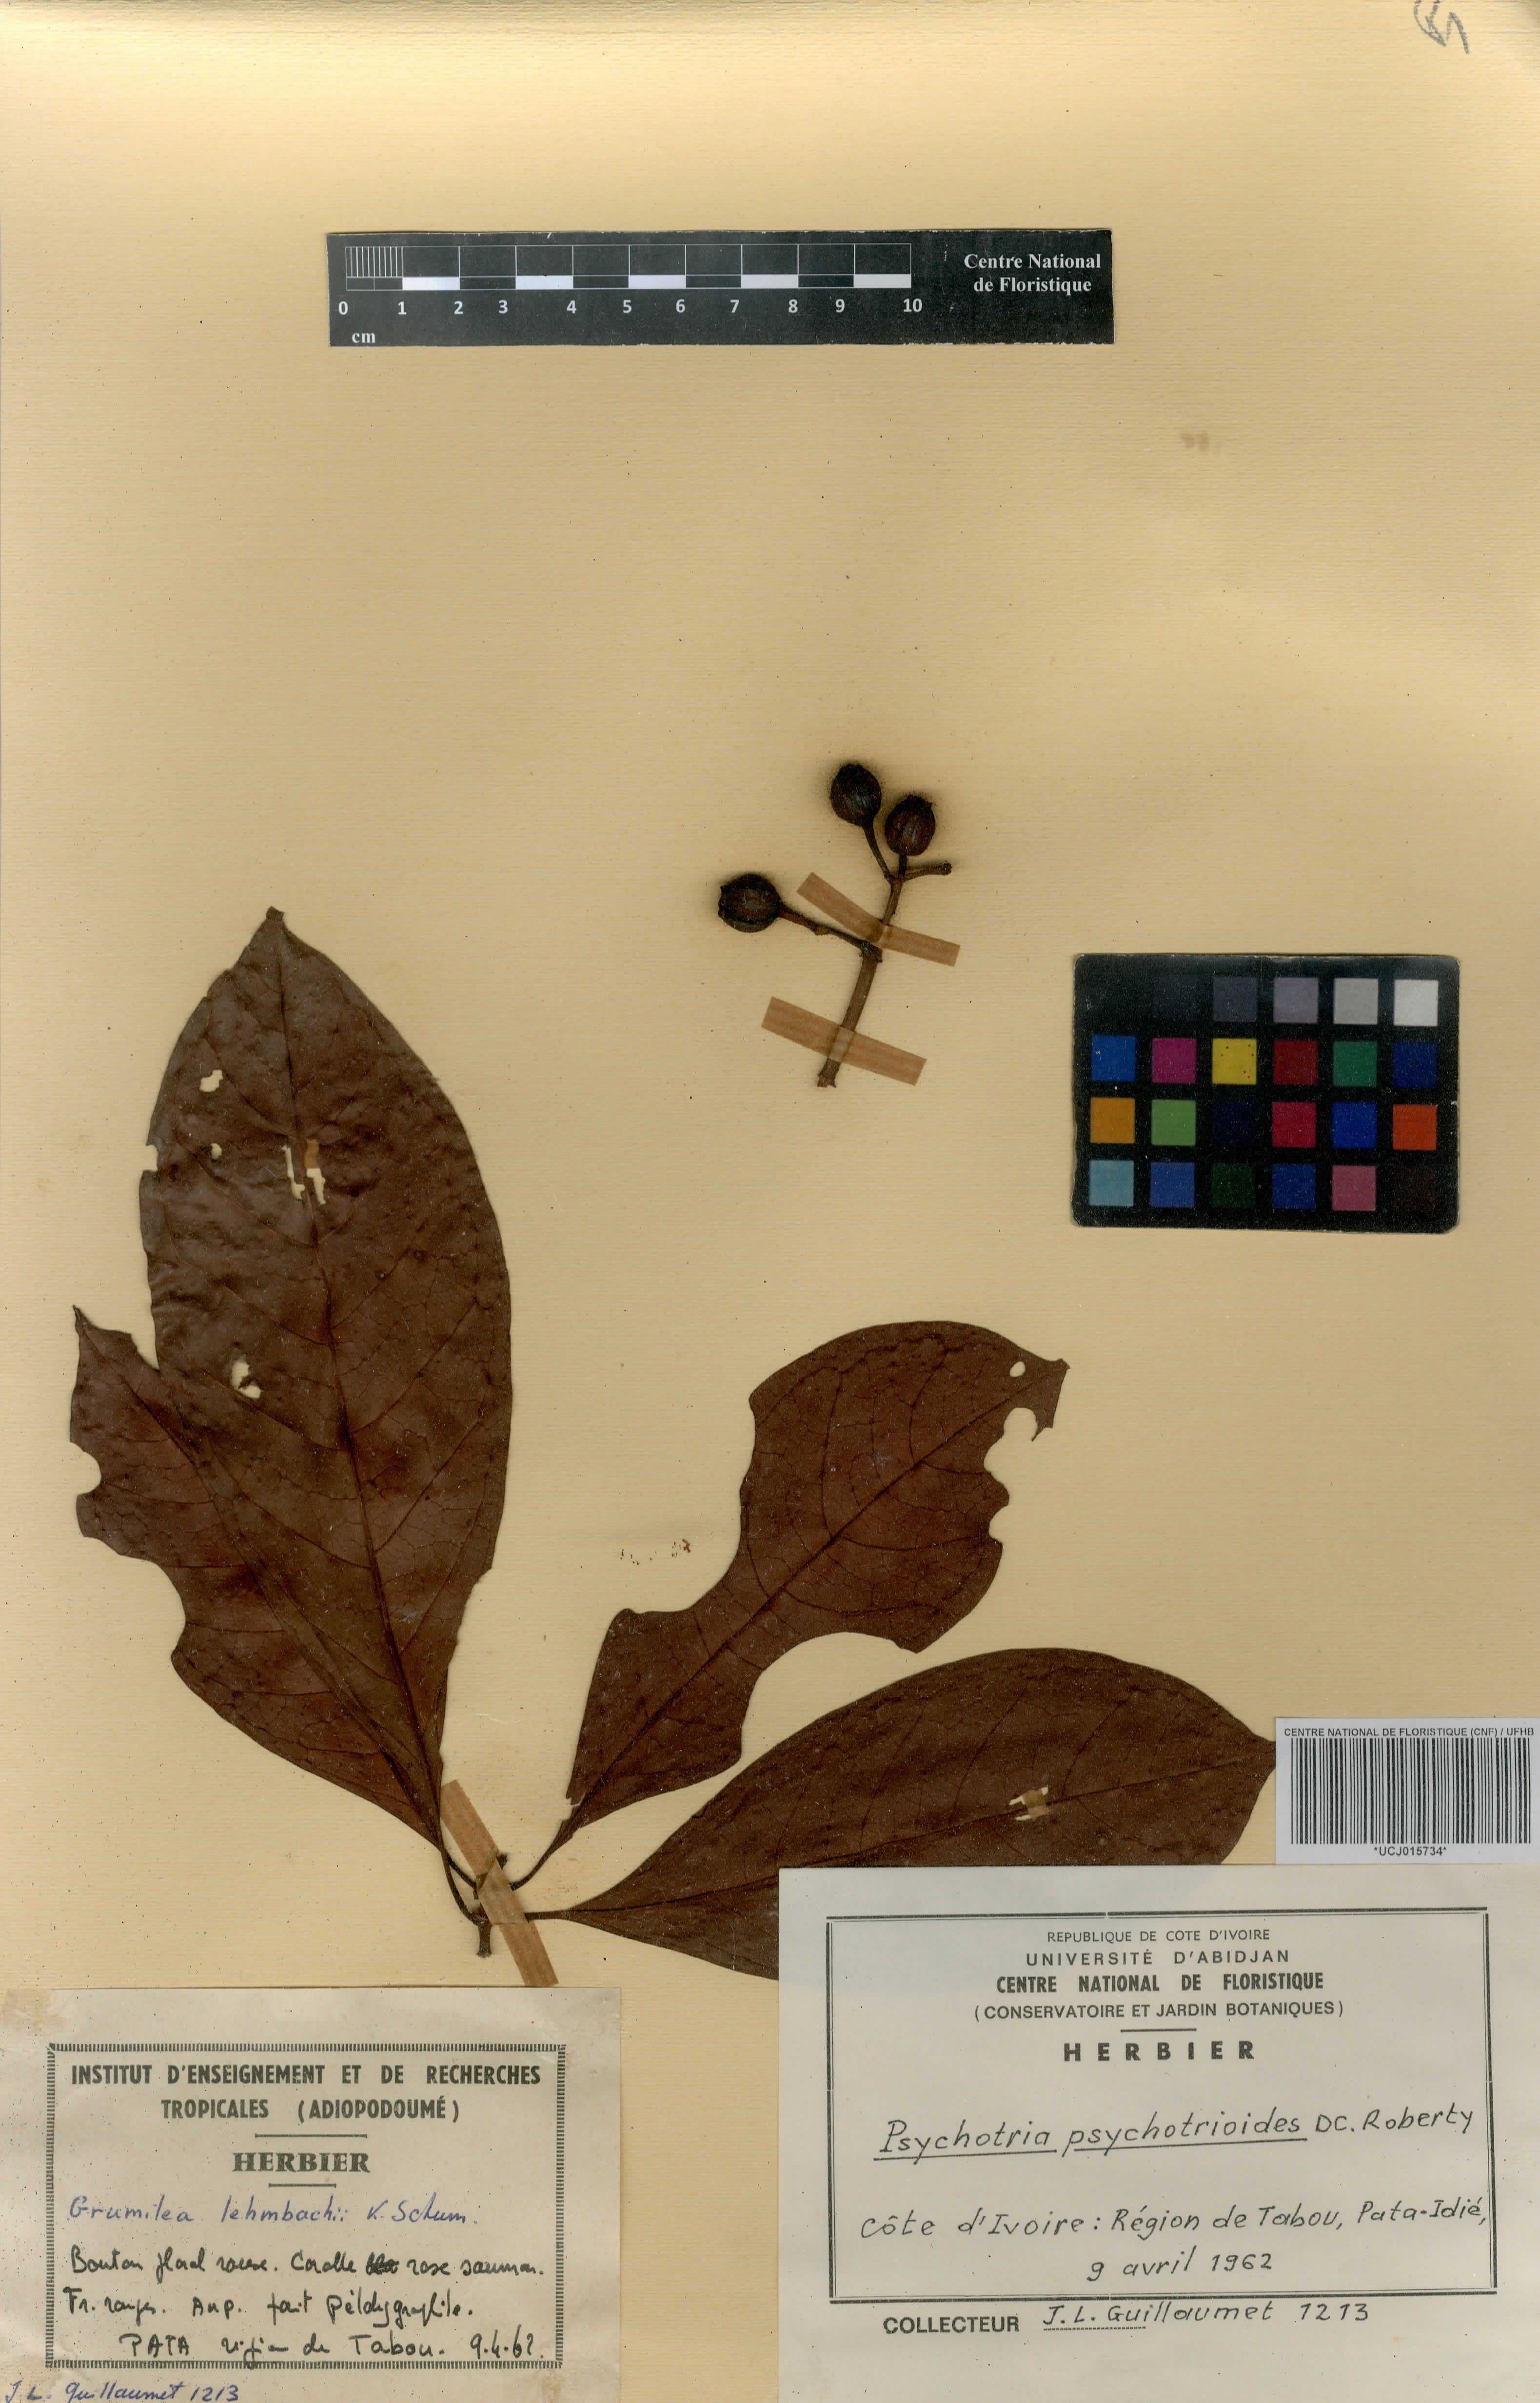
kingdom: Plantae
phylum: Tracheophyta
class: Magnoliopsida
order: Gentianales
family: Rubiaceae
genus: Psychotria
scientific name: Psychotria psychotrioides
